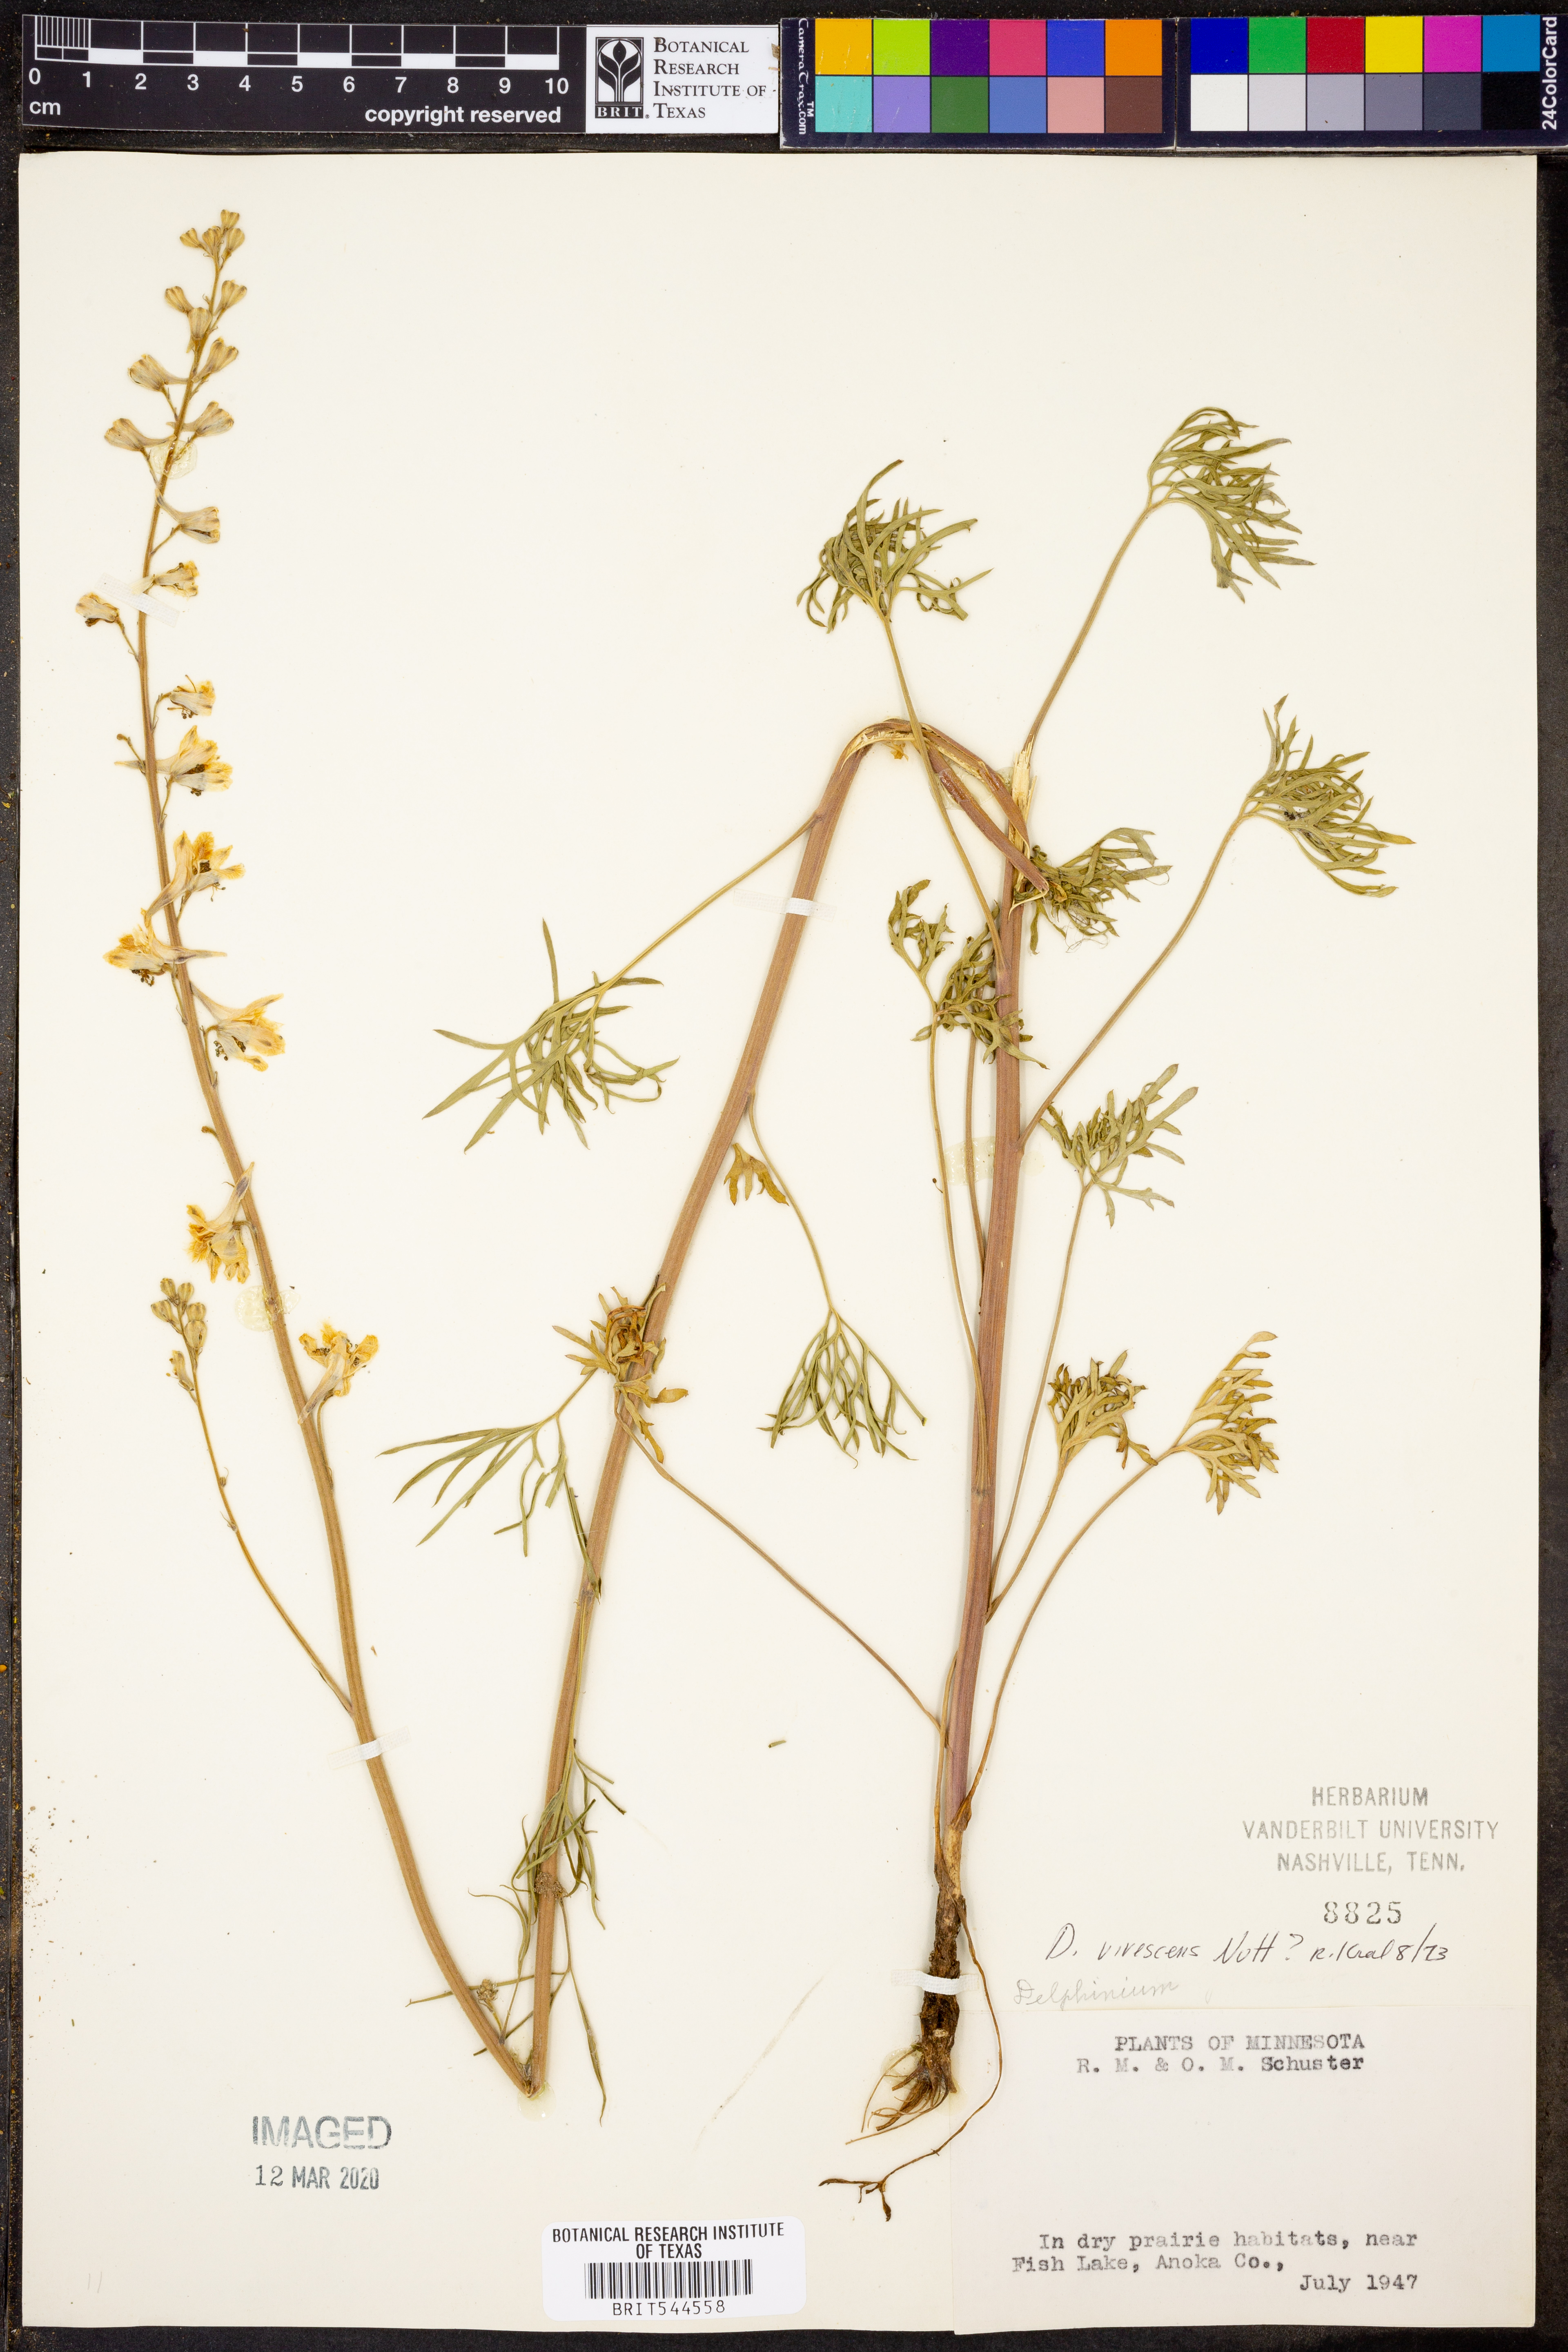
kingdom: Plantae
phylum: Tracheophyta
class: Magnoliopsida
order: Ranunculales
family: Ranunculaceae
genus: Delphinium
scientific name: Delphinium carolinianum
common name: Carolina larkspur
